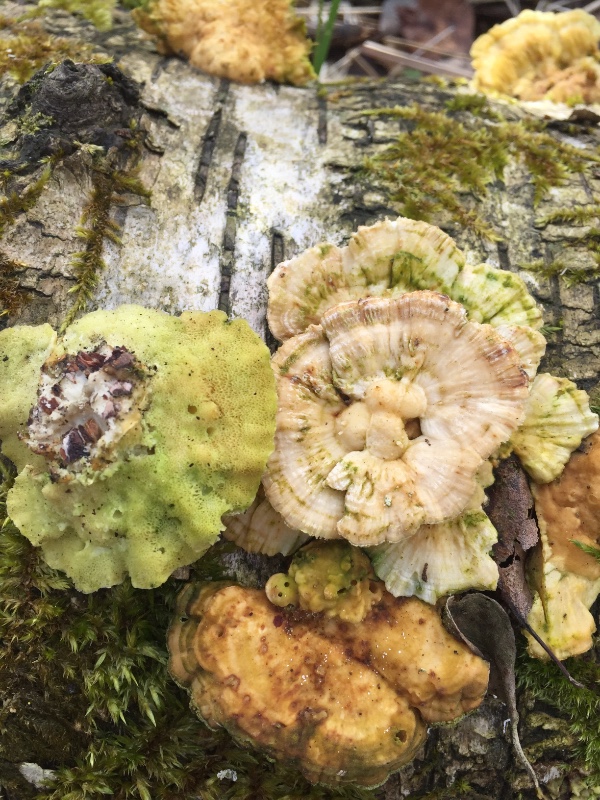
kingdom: Fungi
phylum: Basidiomycota
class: Agaricomycetes
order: Polyporales
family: Polyporaceae
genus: Trametes
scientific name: Trametes ochracea
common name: bæltet læderporesvamp
